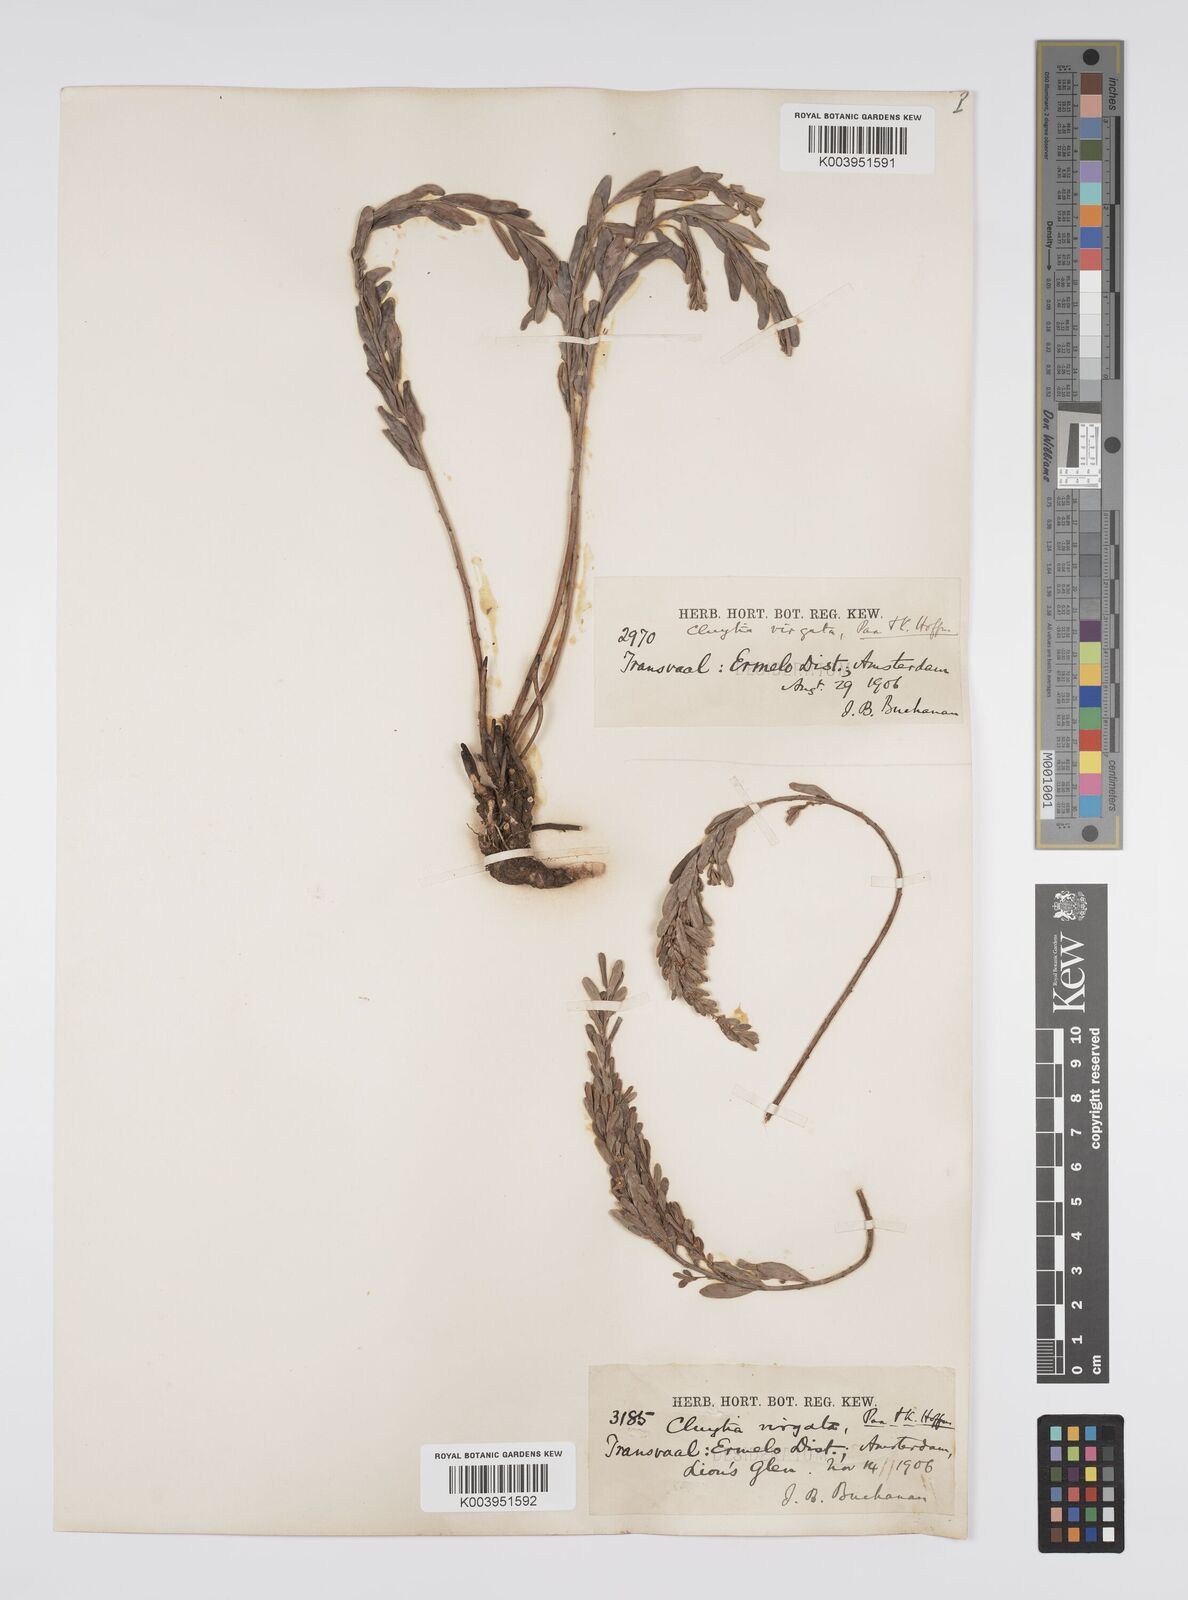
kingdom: Plantae
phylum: Tracheophyta
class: Magnoliopsida
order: Malpighiales
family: Peraceae
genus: Clutia
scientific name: Clutia virgata
